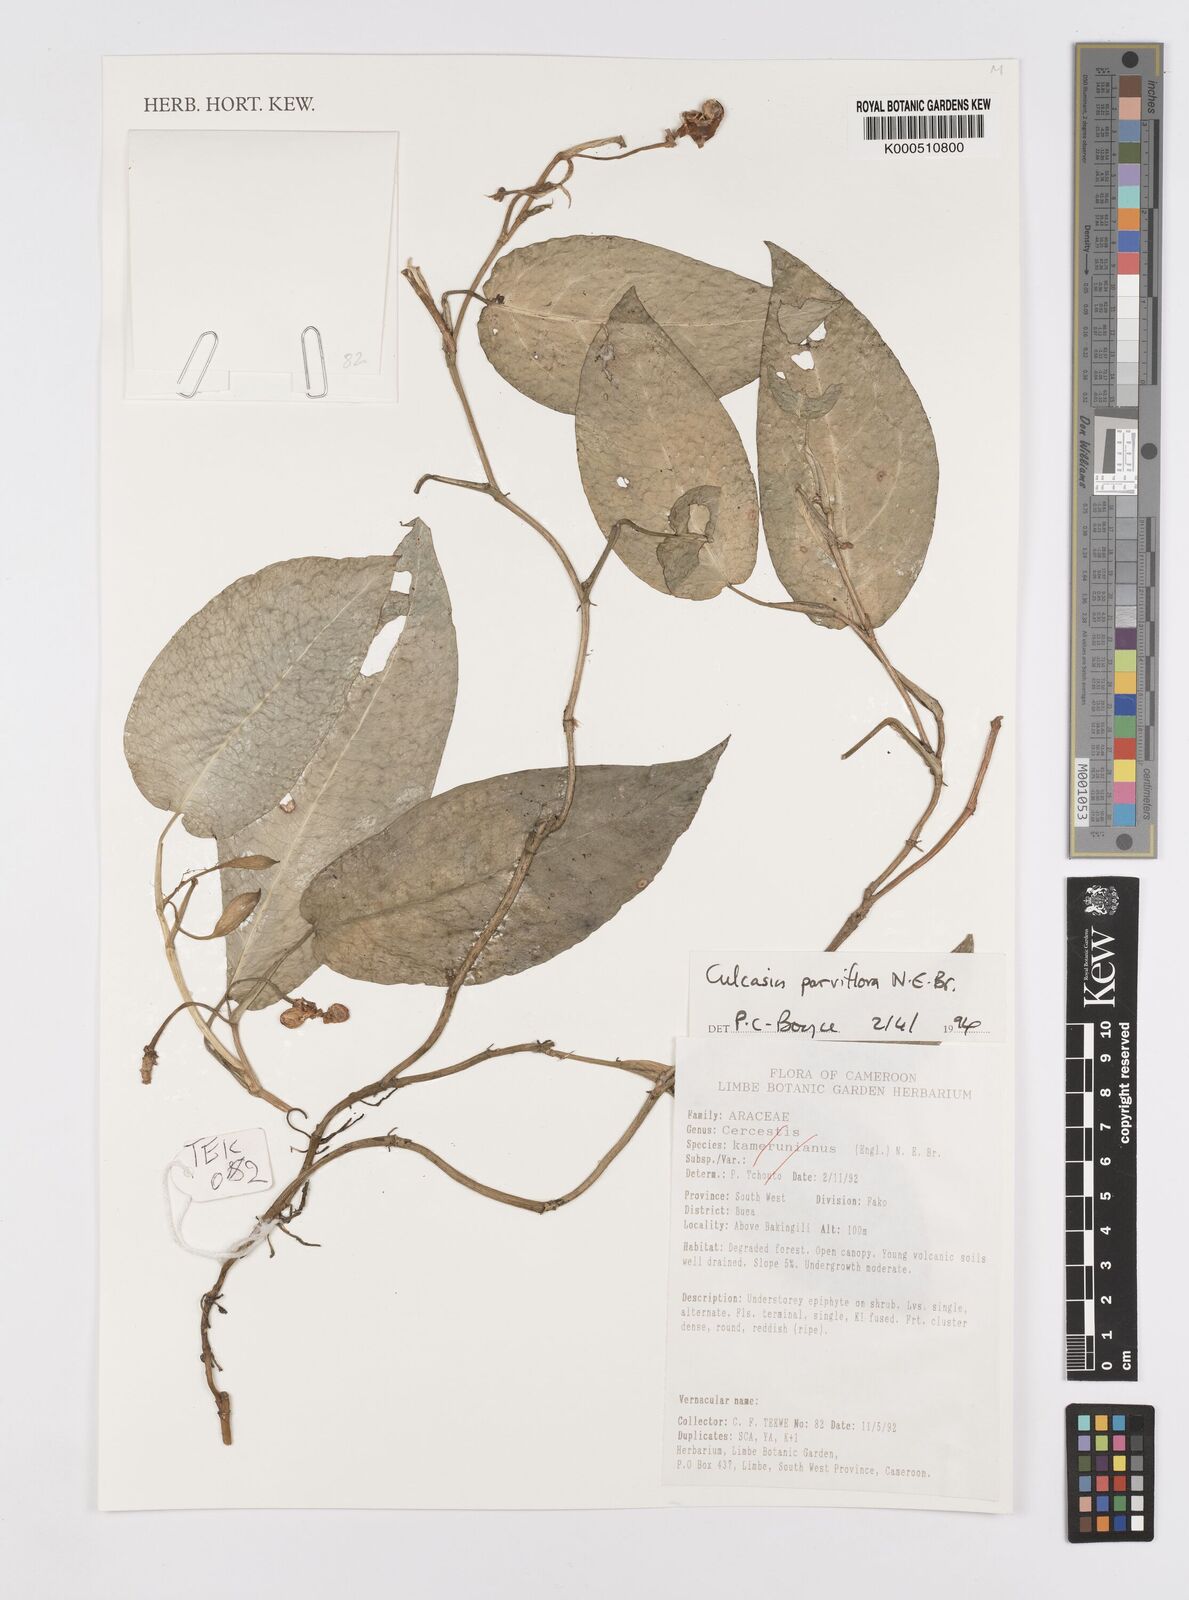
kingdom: Plantae
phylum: Tracheophyta
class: Liliopsida
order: Alismatales
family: Araceae
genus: Culcasia
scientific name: Culcasia parviflora
